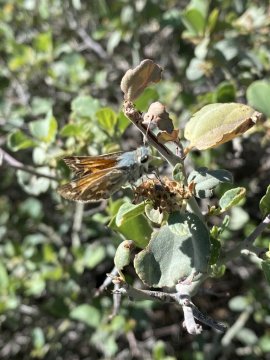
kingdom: Animalia
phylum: Arthropoda
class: Insecta
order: Lepidoptera
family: Hesperiidae
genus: Hesperia
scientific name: Hesperia comma
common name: Western Branded Skipper
